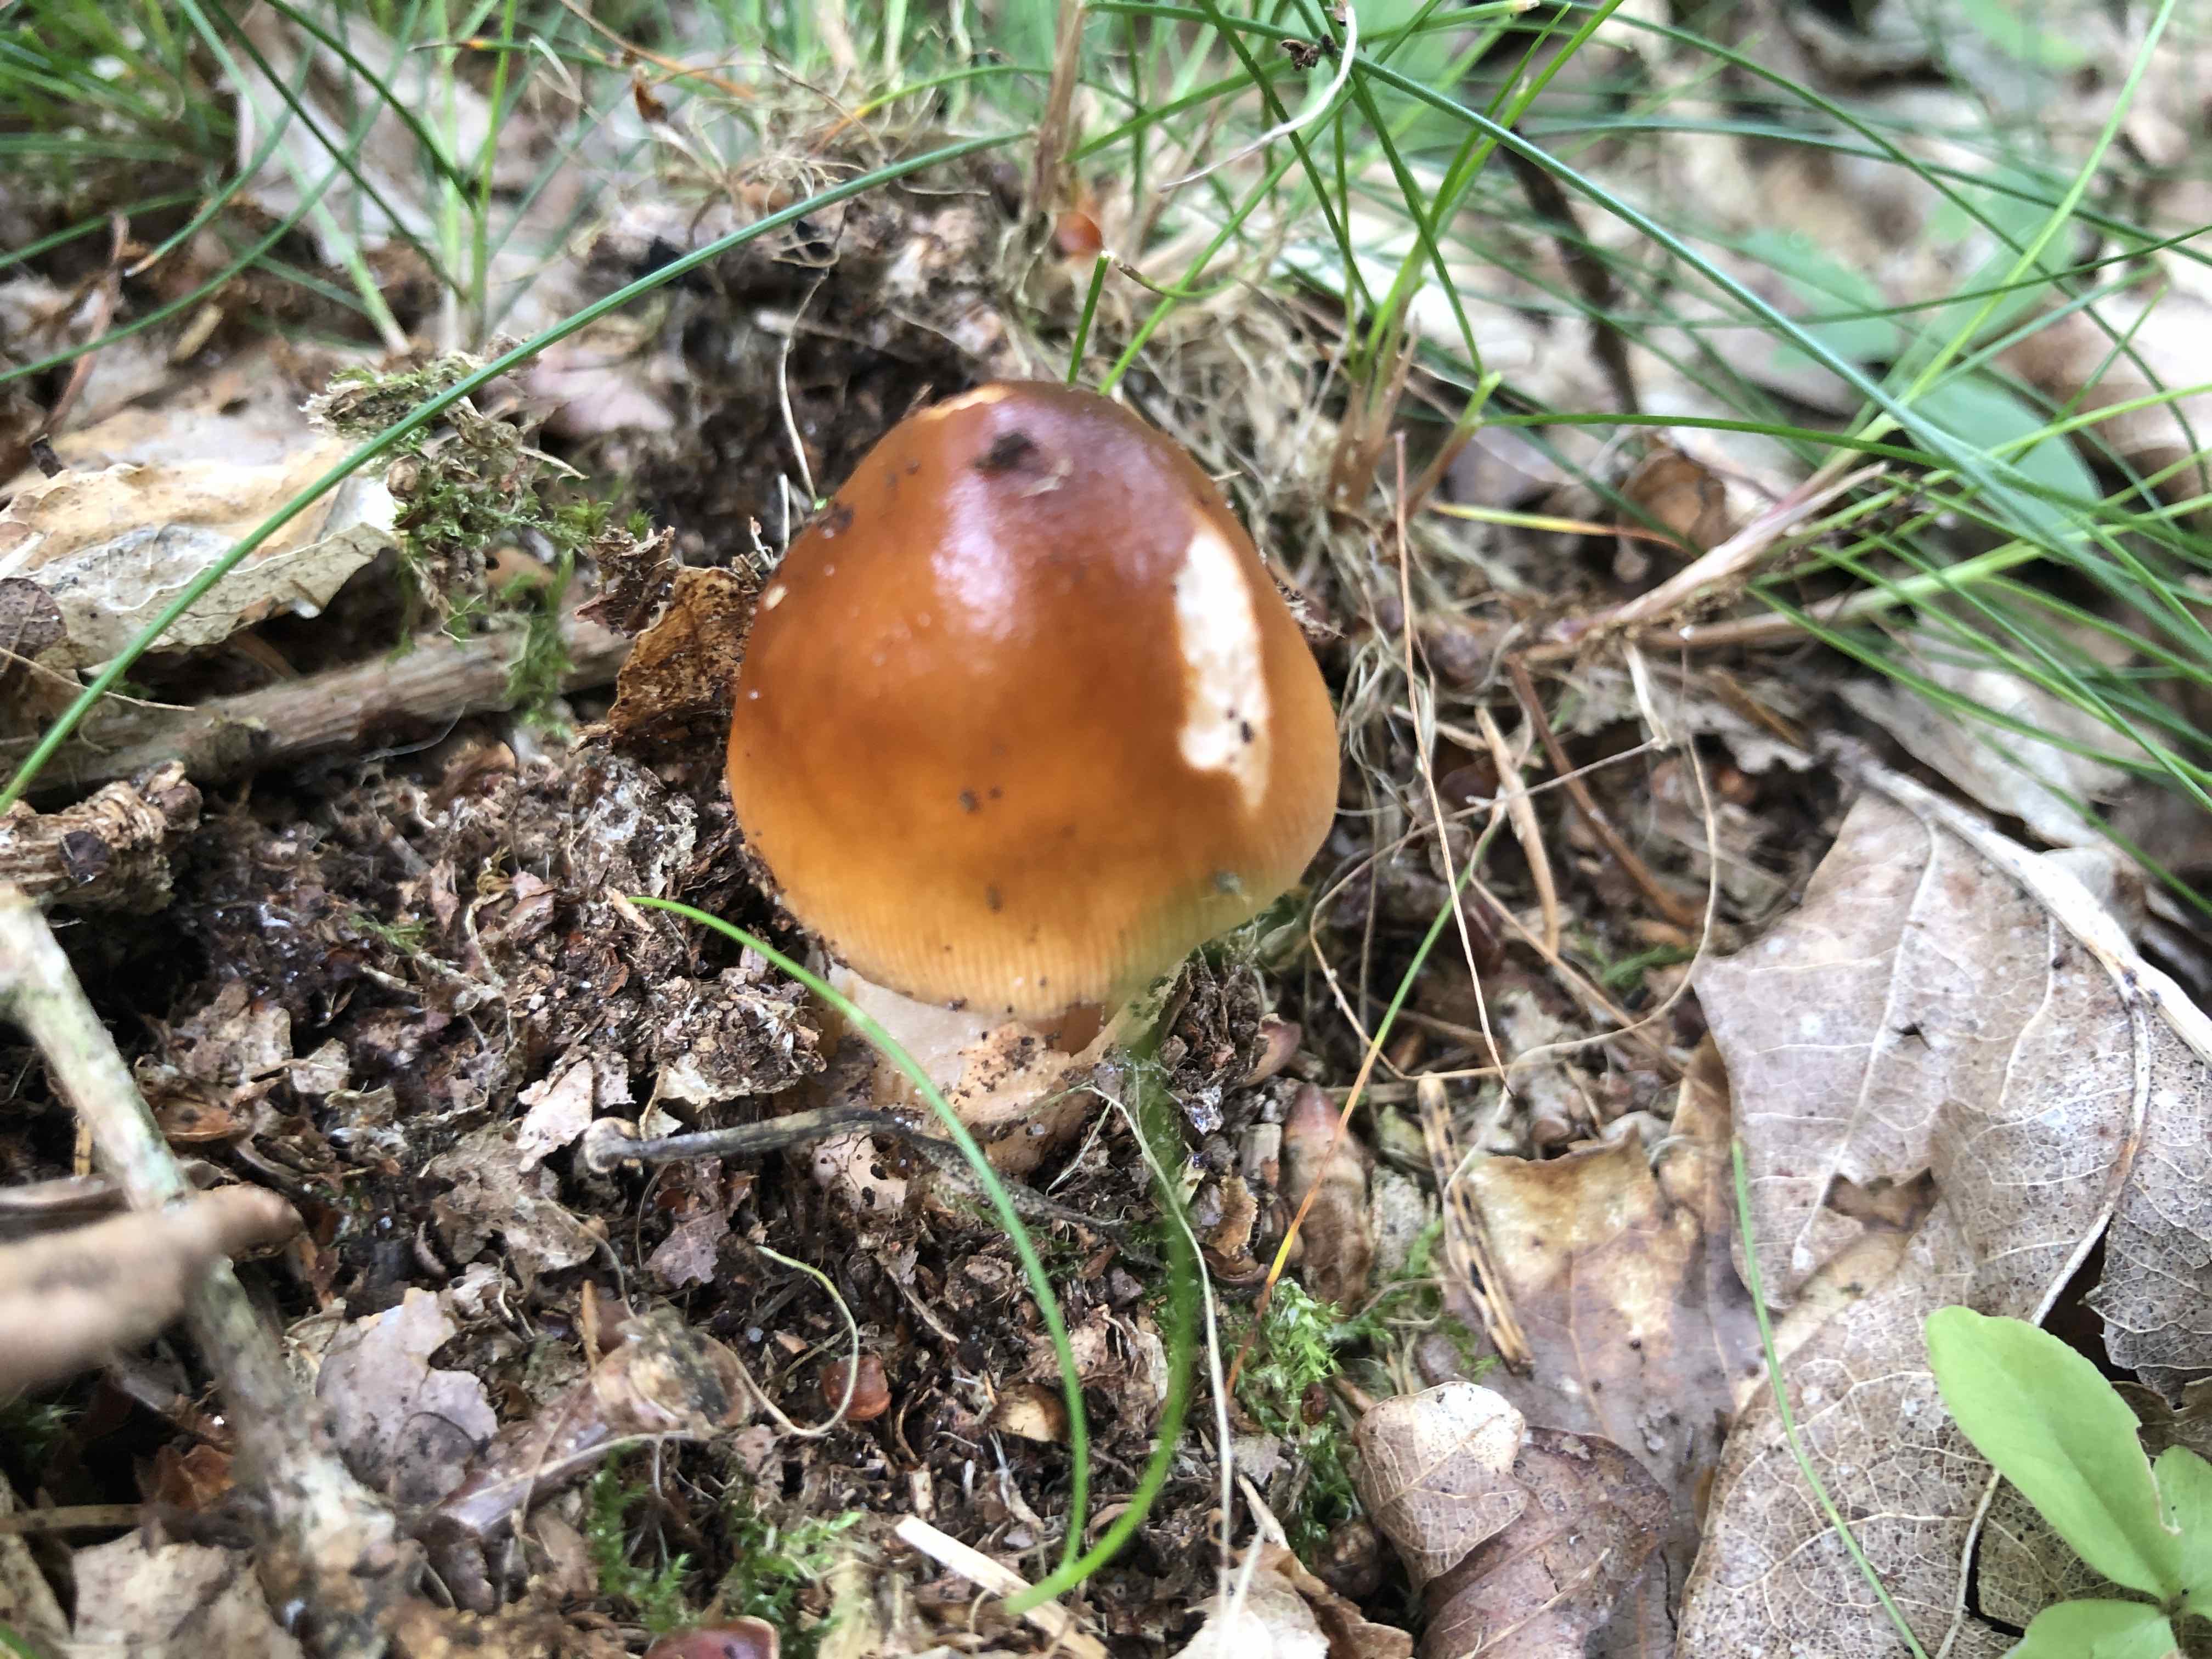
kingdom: Fungi
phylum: Basidiomycota
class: Agaricomycetes
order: Agaricales
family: Amanitaceae
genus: Amanita
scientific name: Amanita fulva
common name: brun kam-fluesvamp
